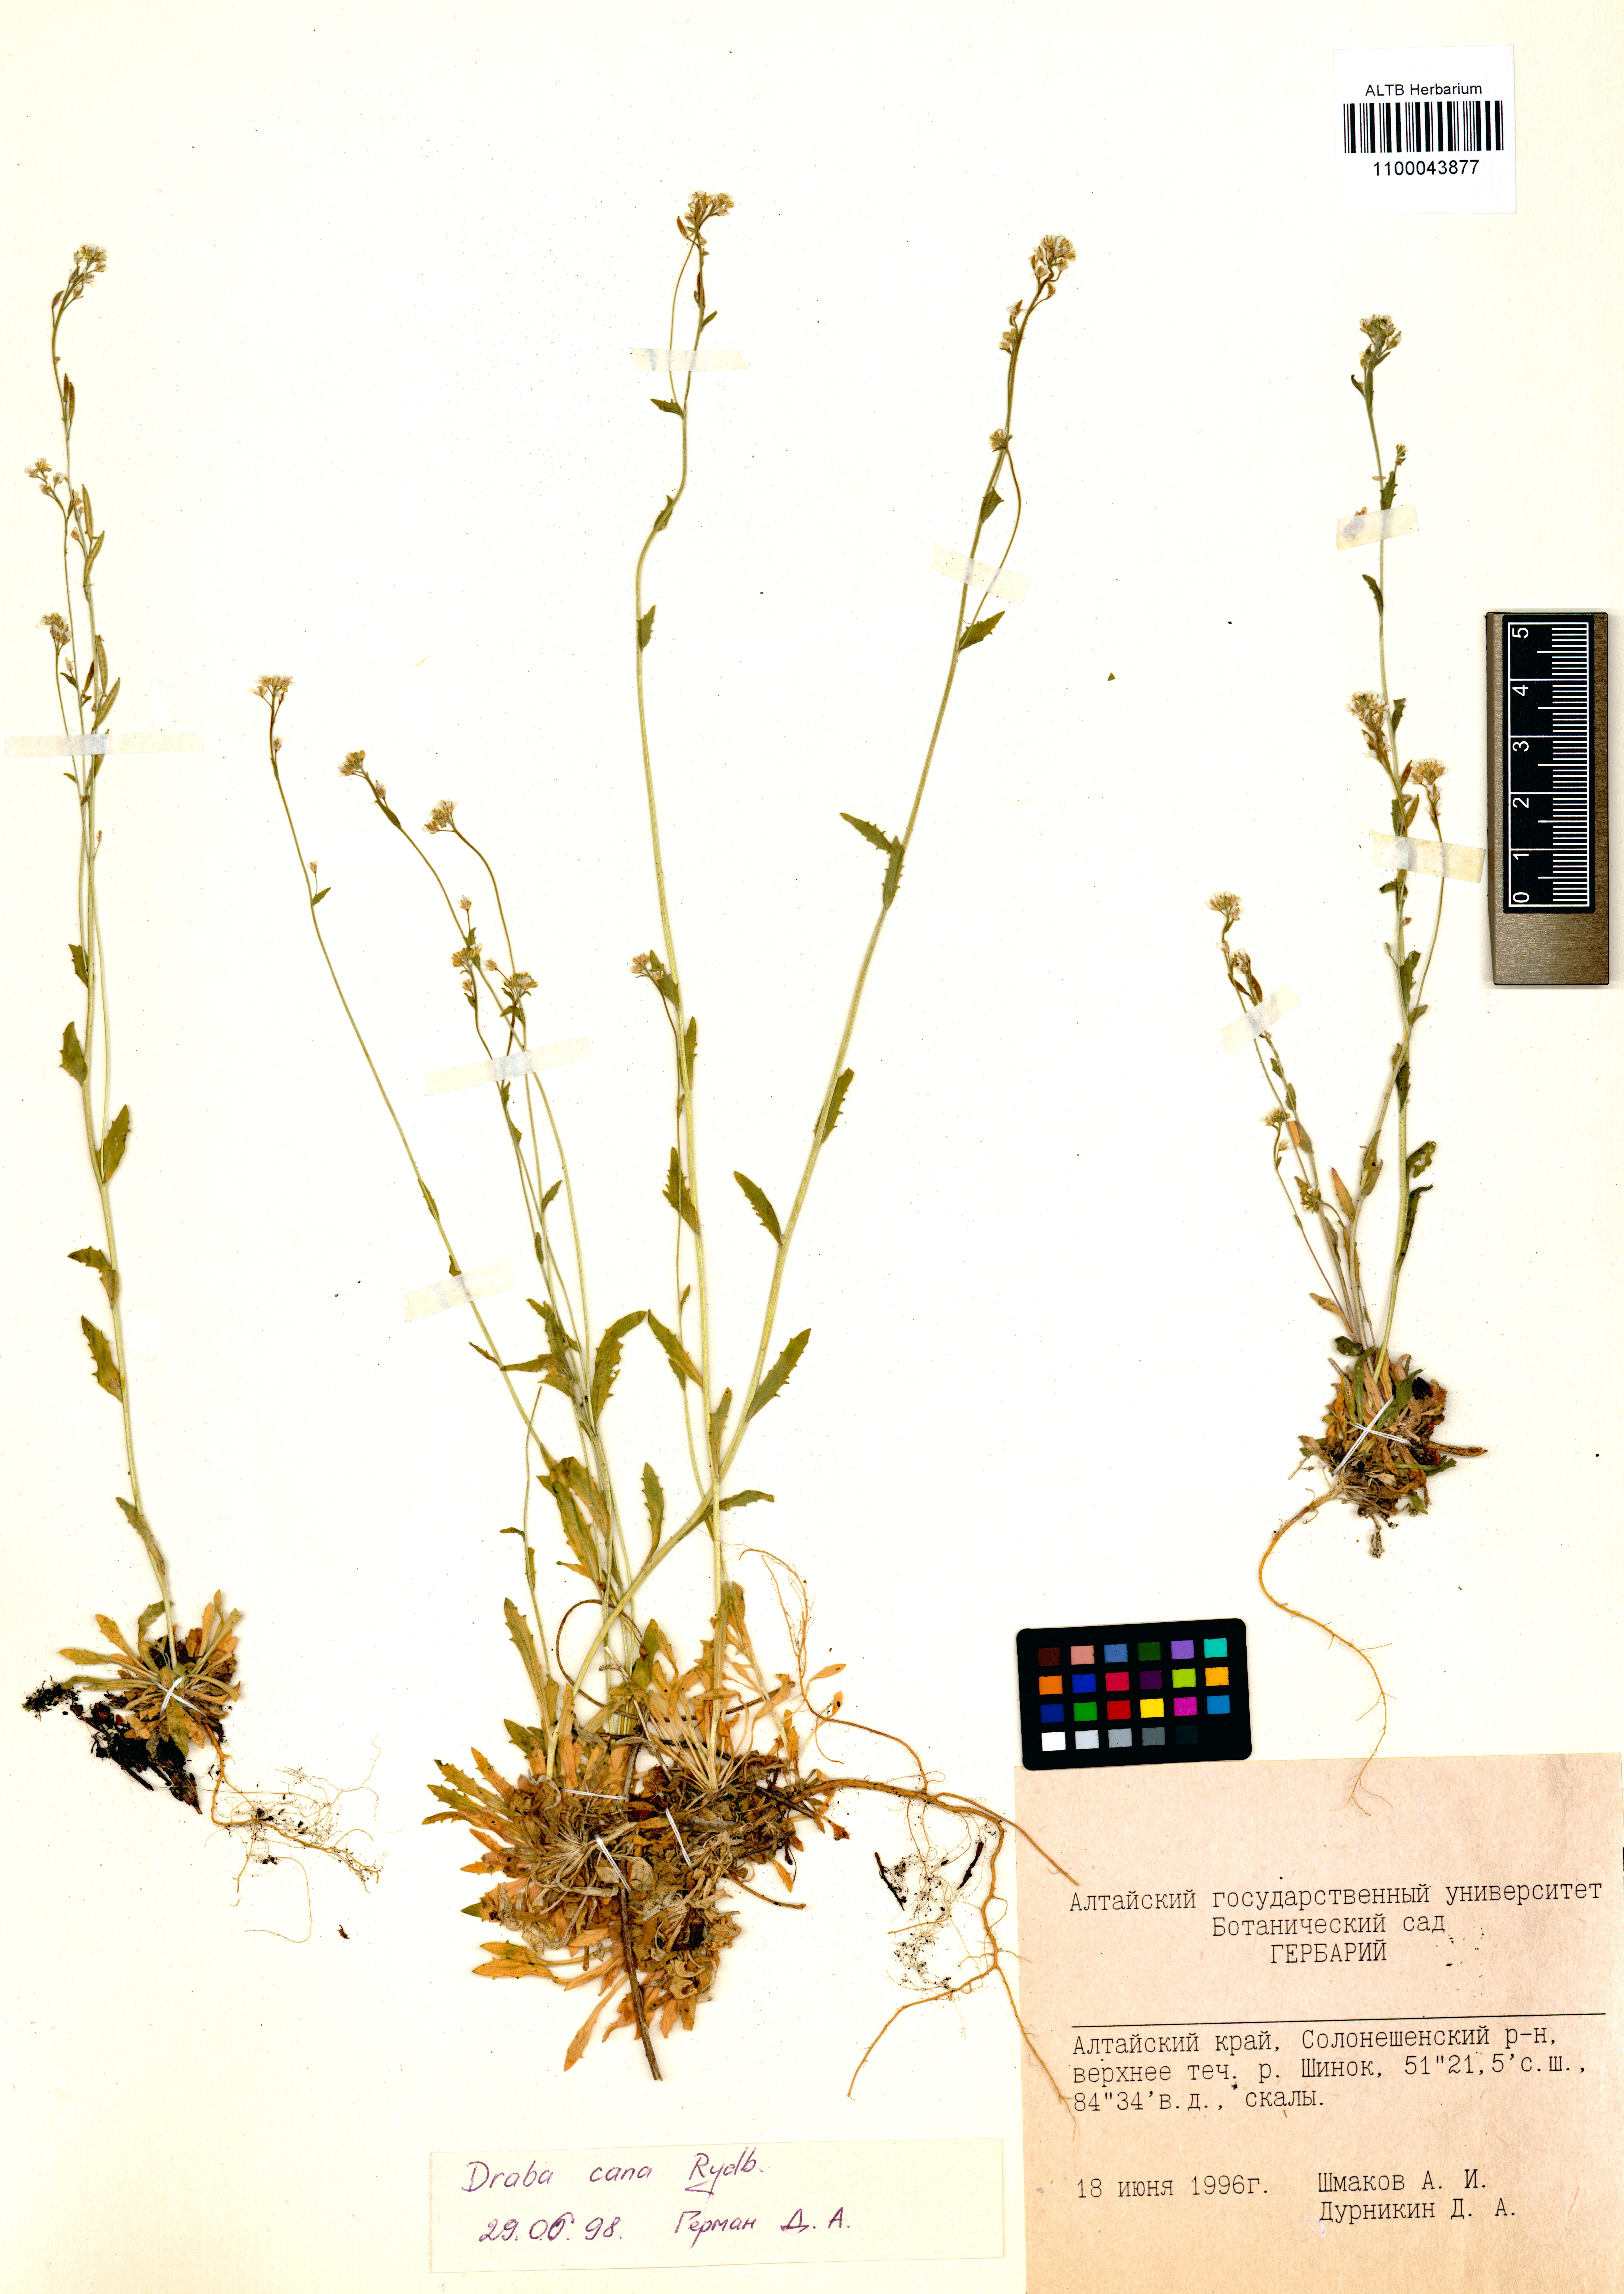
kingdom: Plantae
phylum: Tracheophyta
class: Magnoliopsida
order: Brassicales
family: Brassicaceae
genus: Draba
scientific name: Draba cana
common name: Hoary draba
